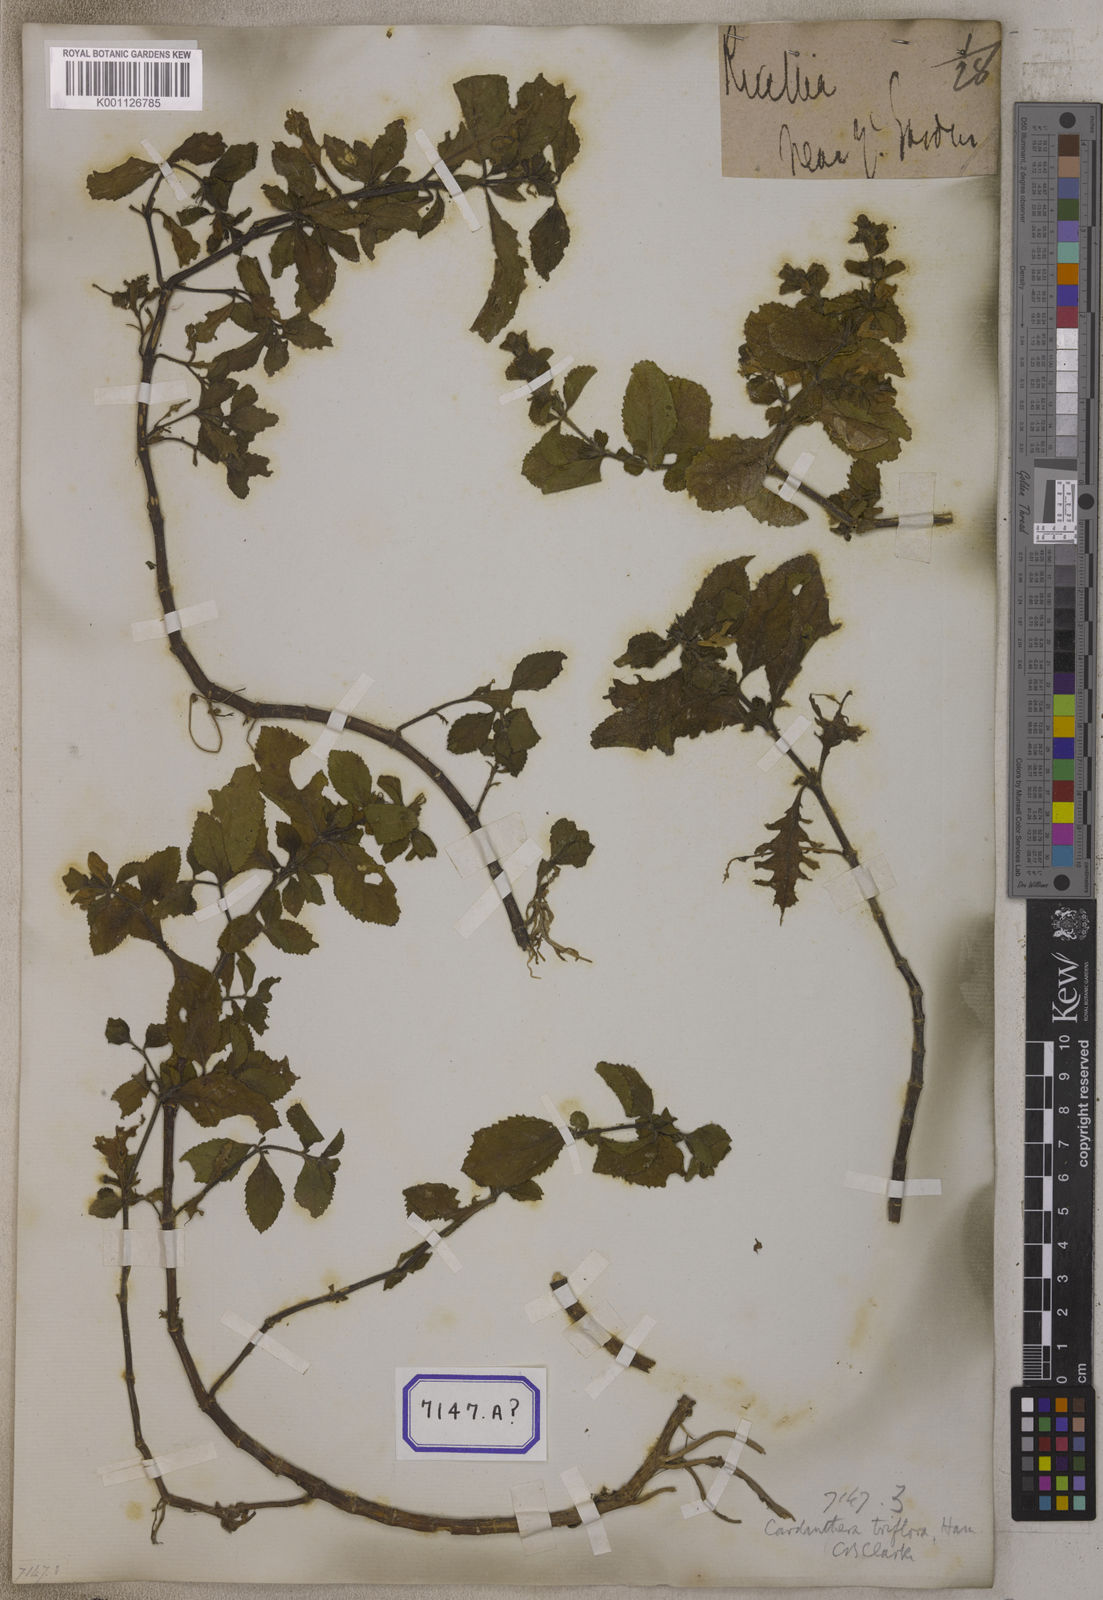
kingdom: Plantae
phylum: Tracheophyta
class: Magnoliopsida
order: Lamiales
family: Plantaginaceae
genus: Adenosma
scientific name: Adenosma
